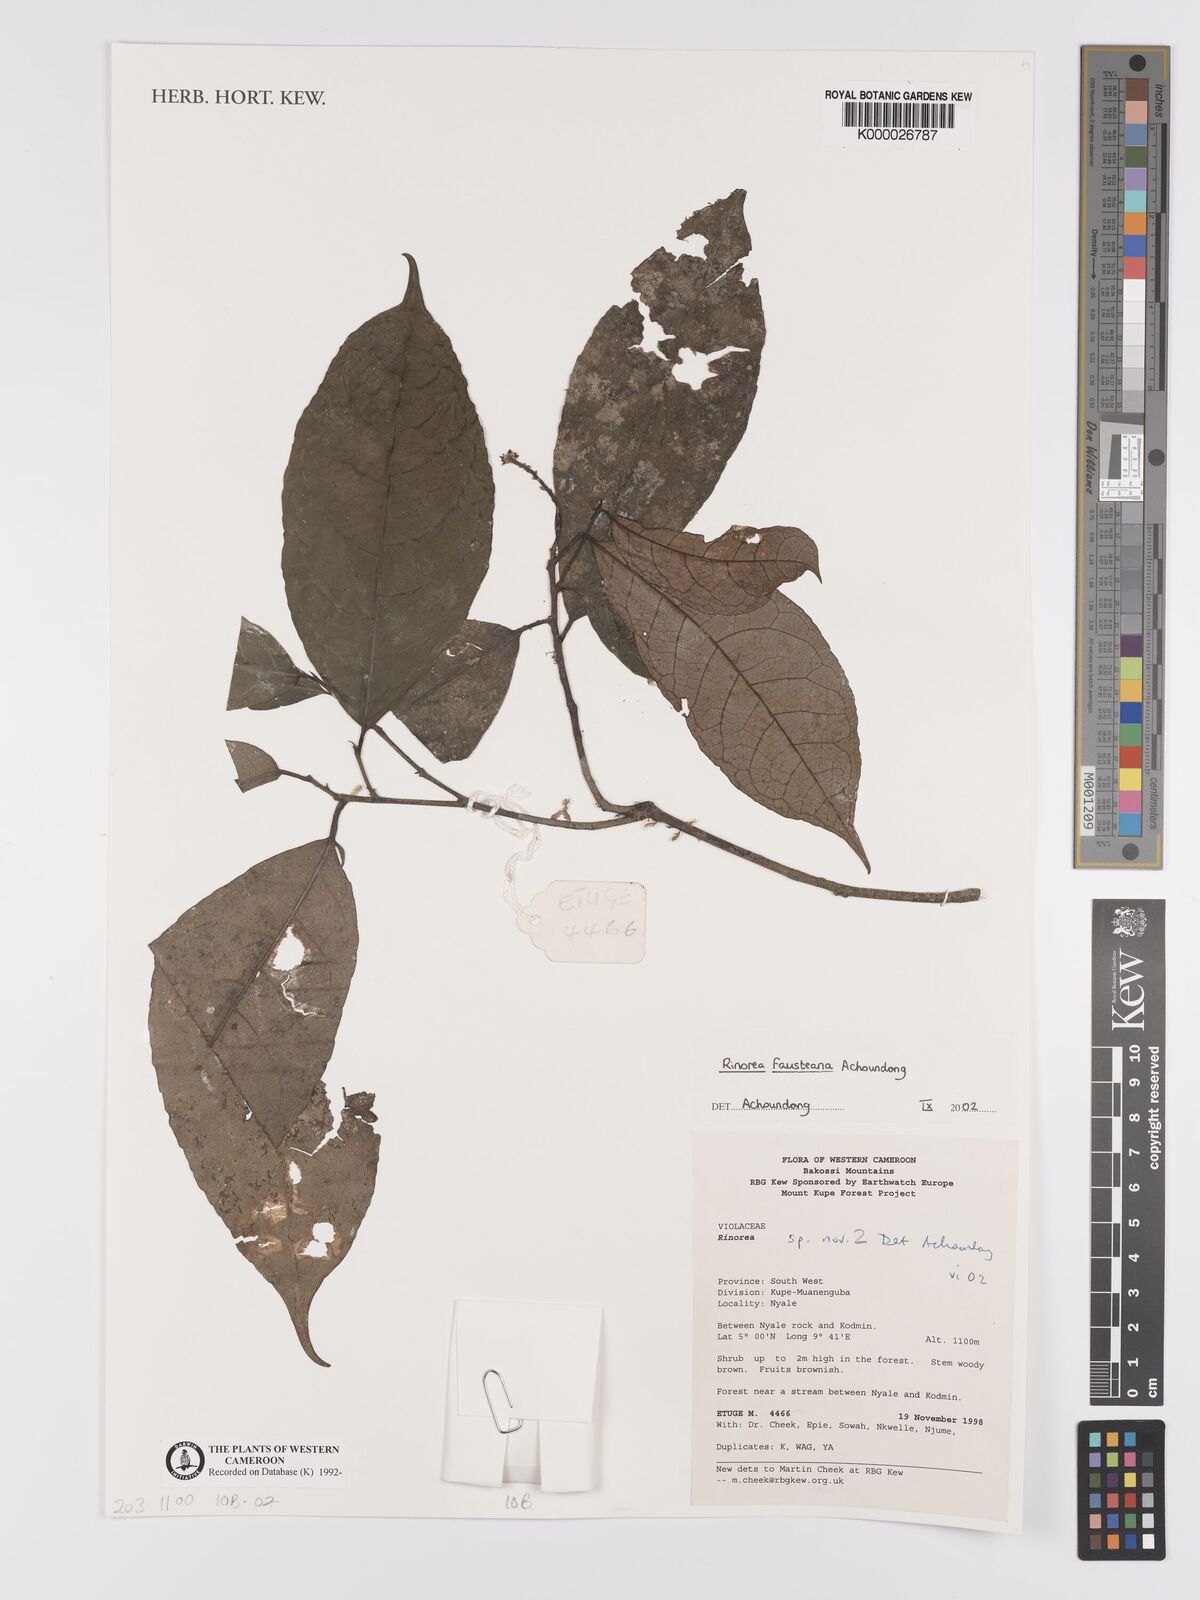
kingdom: Plantae
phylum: Tracheophyta
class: Magnoliopsida
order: Malpighiales
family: Violaceae
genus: Rinorea
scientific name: Rinorea fausteana
